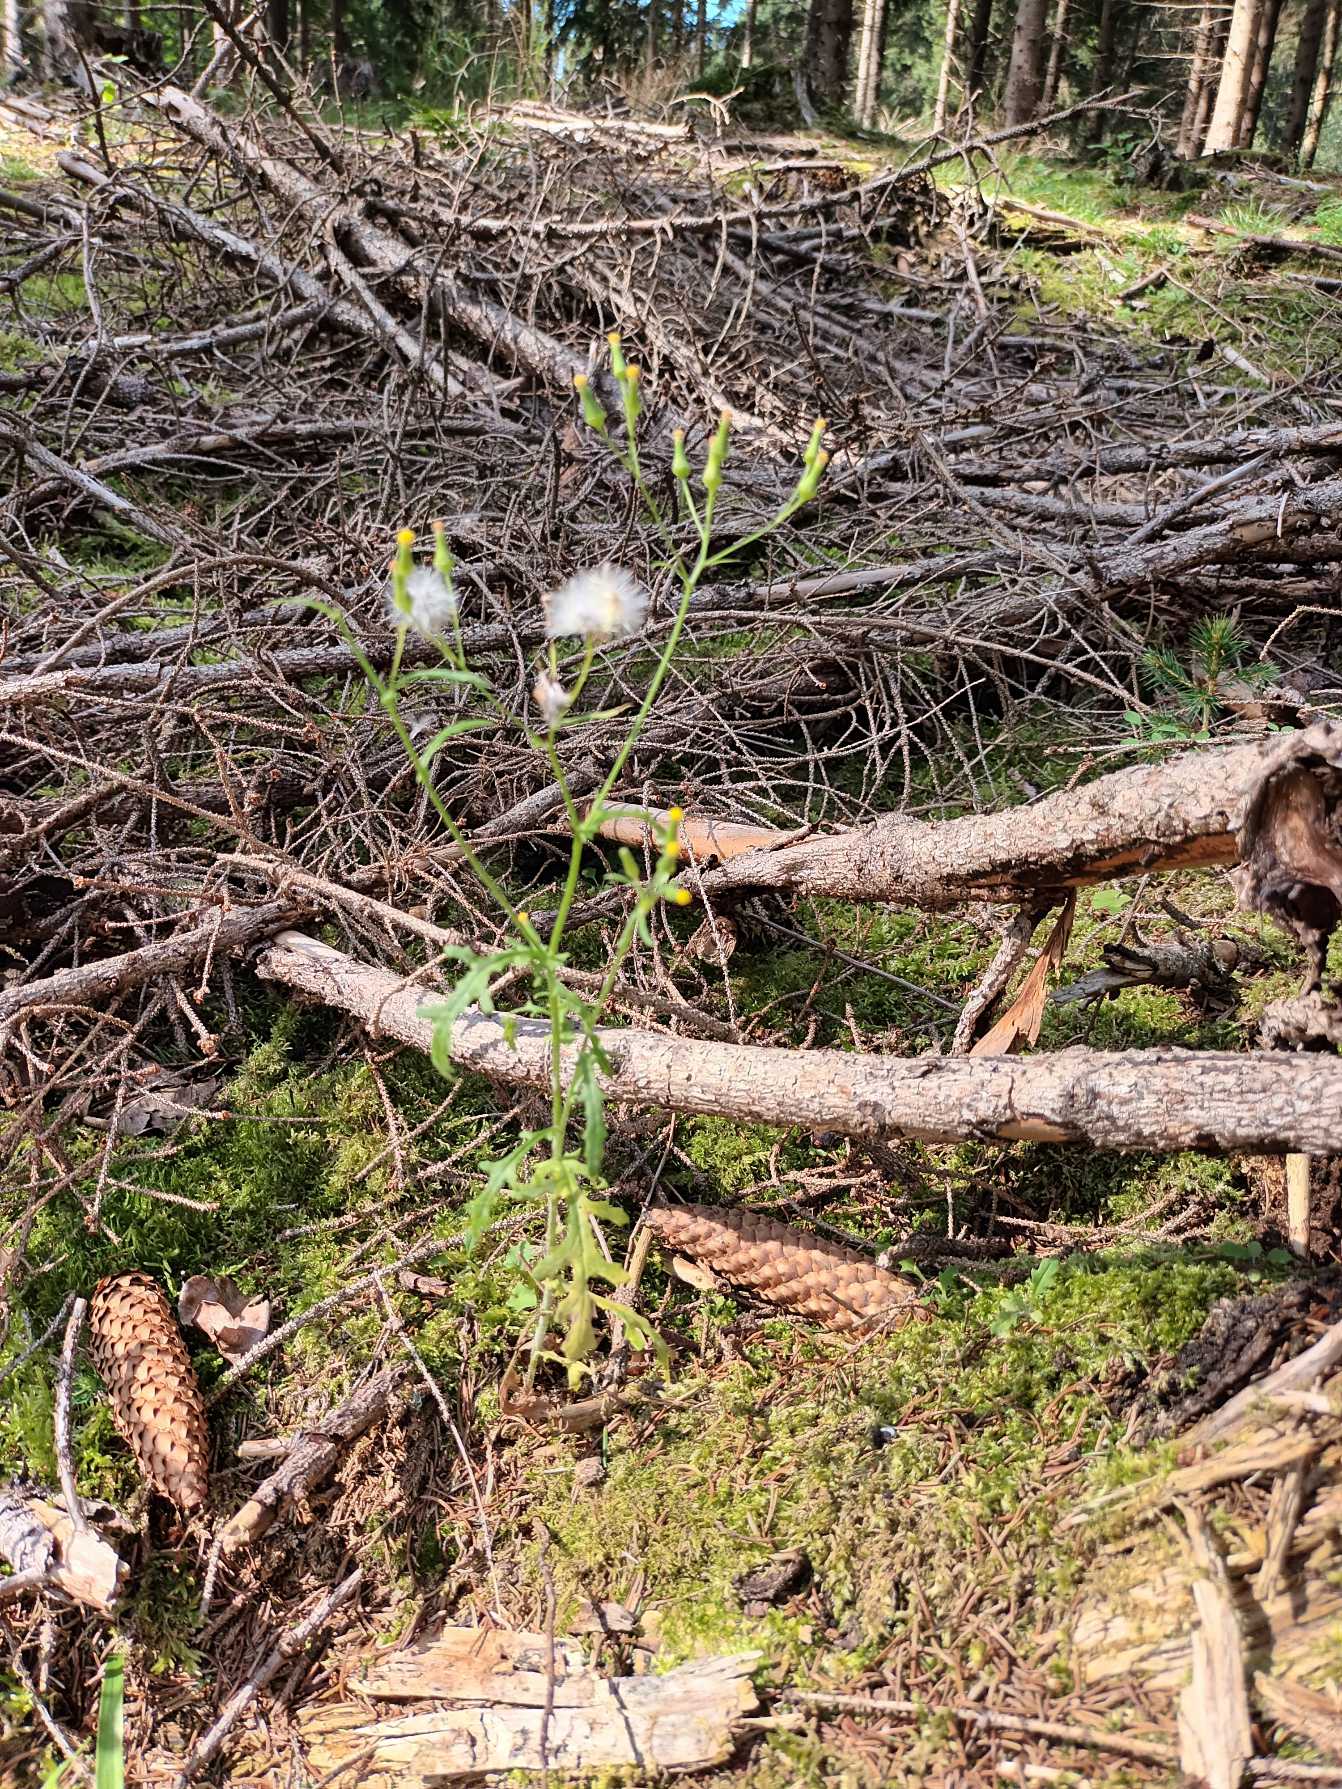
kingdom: Plantae
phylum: Tracheophyta
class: Magnoliopsida
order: Asterales
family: Asteraceae
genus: Senecio
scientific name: Senecio sylvaticus
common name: Skov-brandbæger
